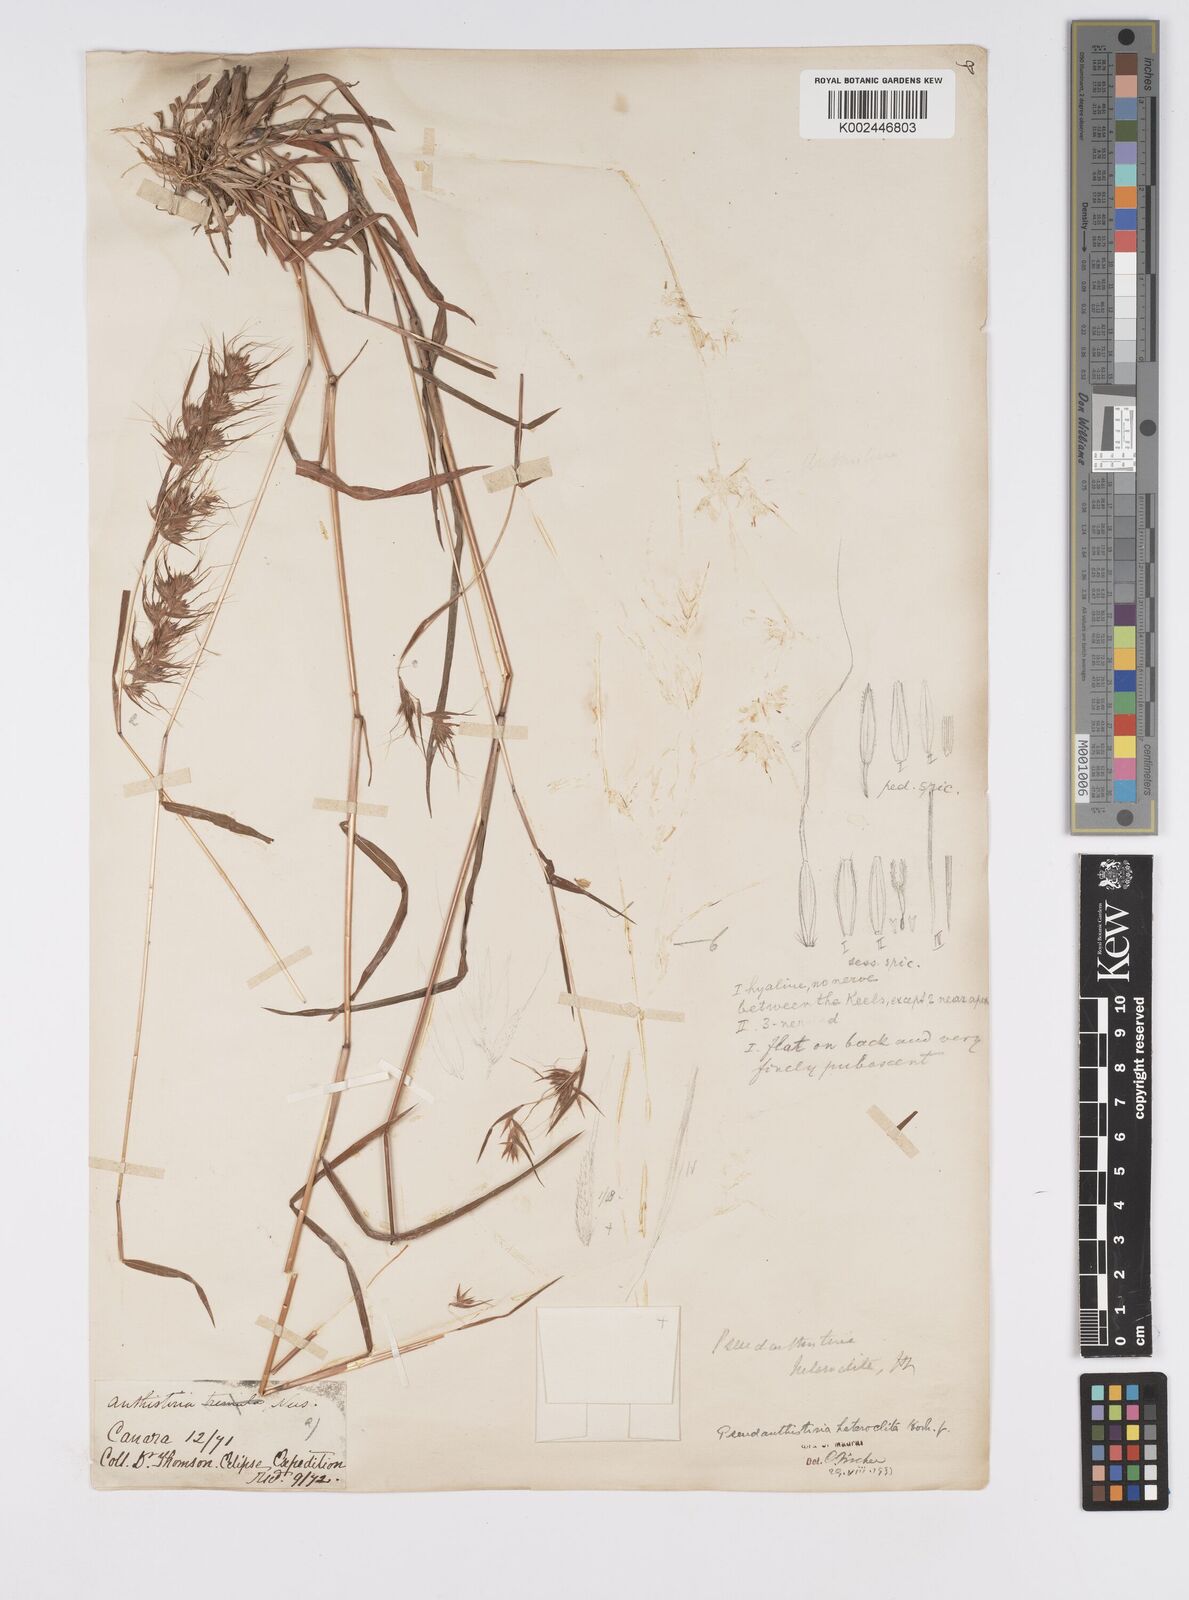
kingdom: Plantae
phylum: Tracheophyta
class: Liliopsida
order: Poales
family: Poaceae
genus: Pseudanthistiria
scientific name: Pseudanthistiria heteroclita
